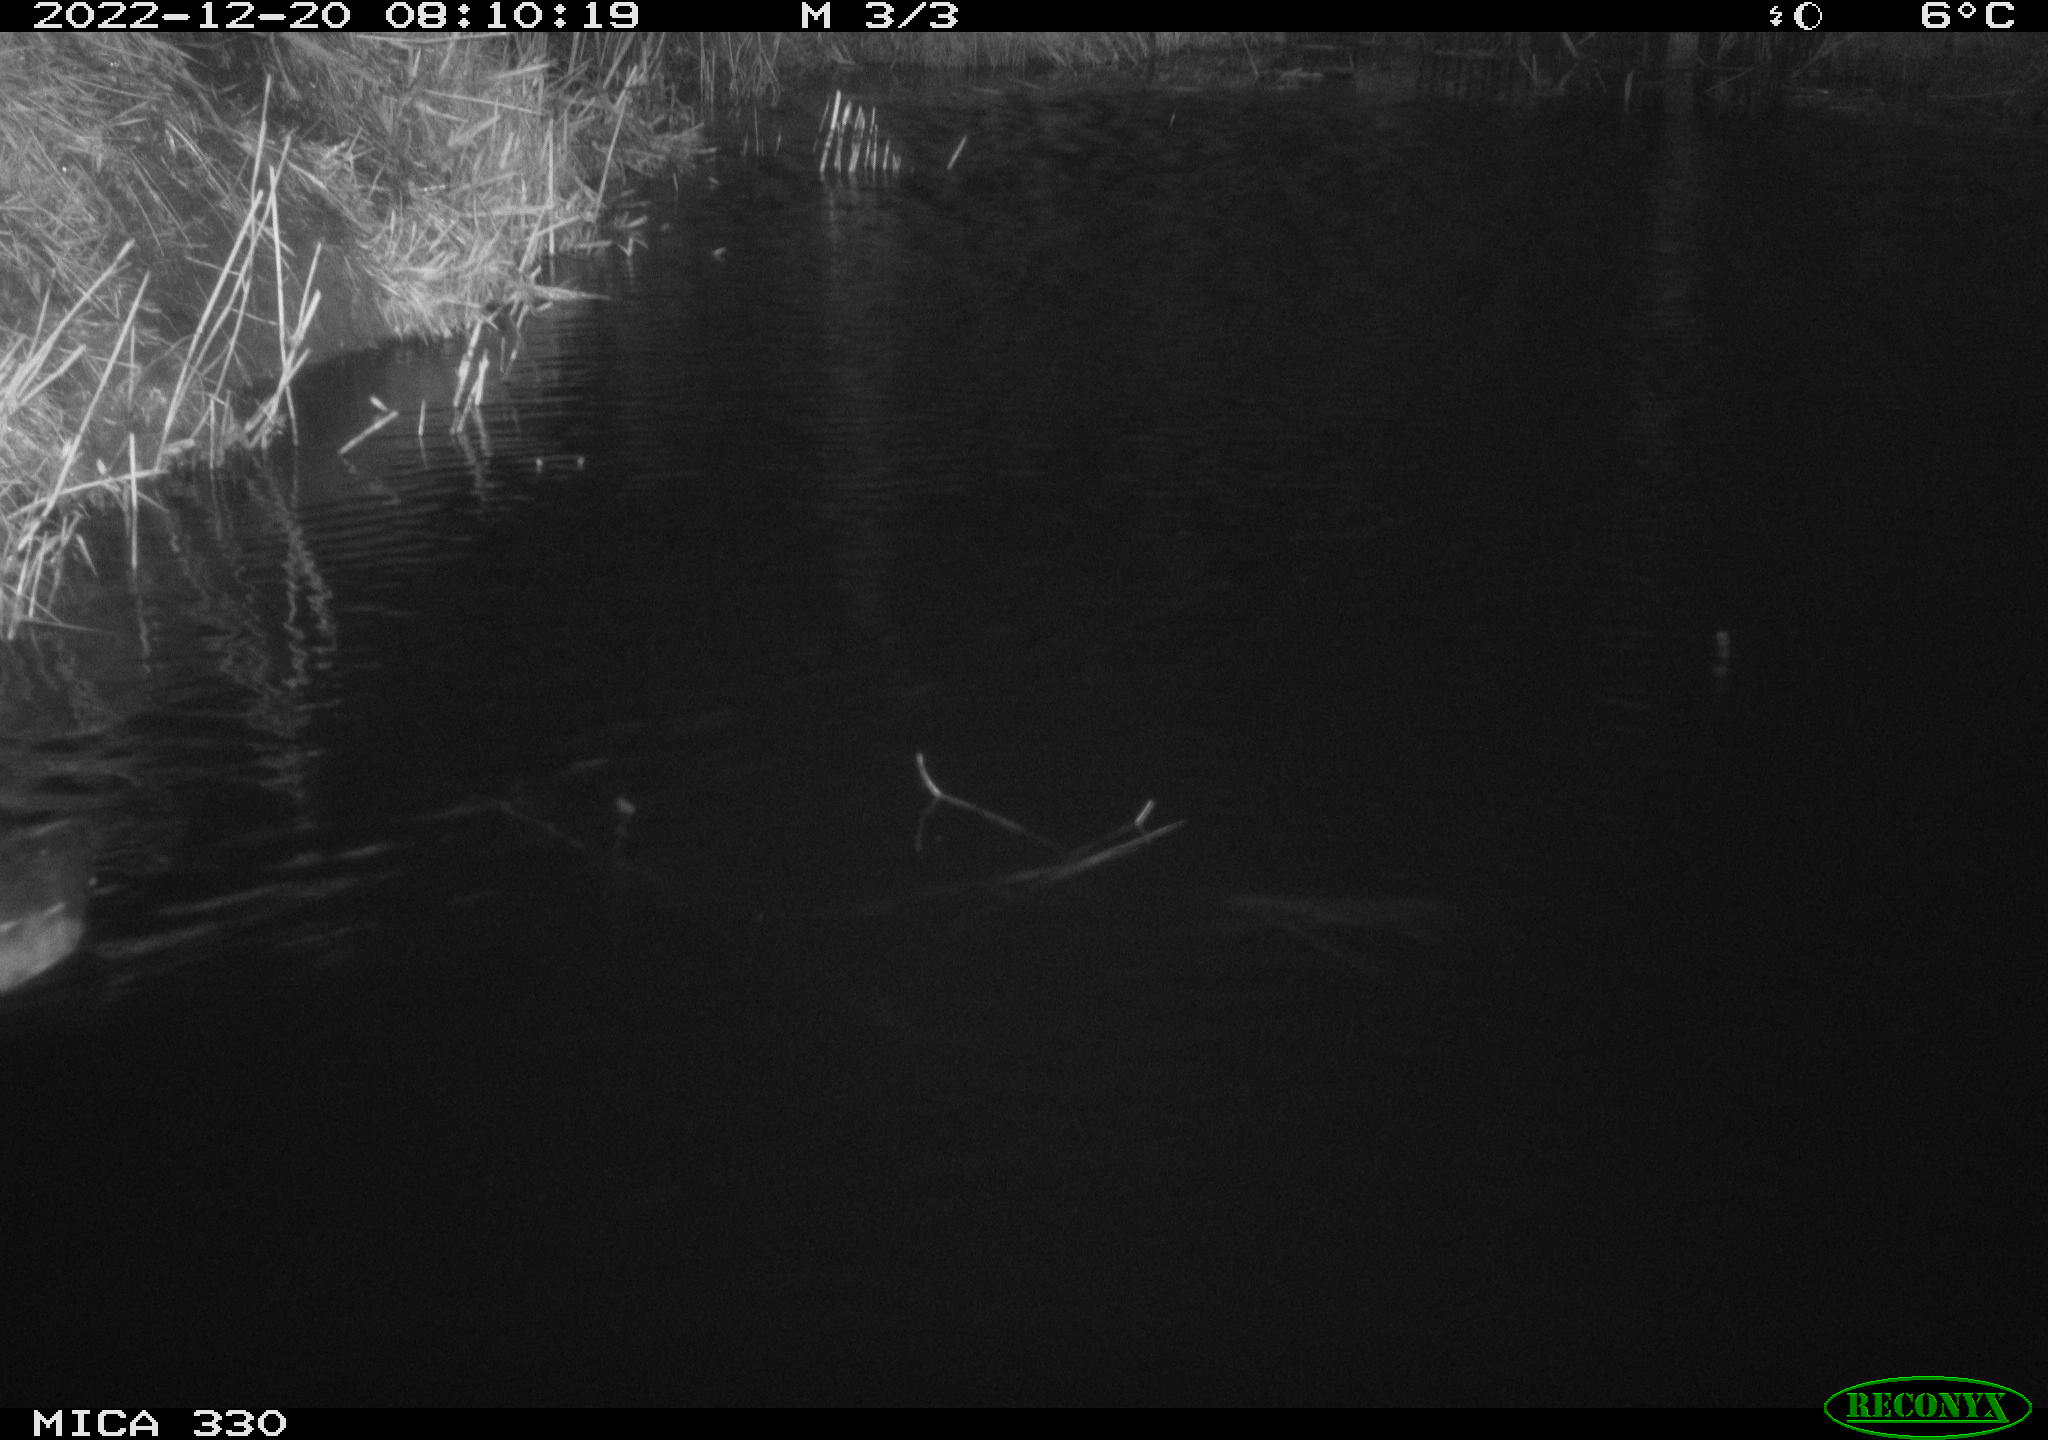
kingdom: Animalia
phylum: Chordata
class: Aves
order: Gruiformes
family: Rallidae
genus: Gallinula
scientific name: Gallinula chloropus
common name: Common moorhen
